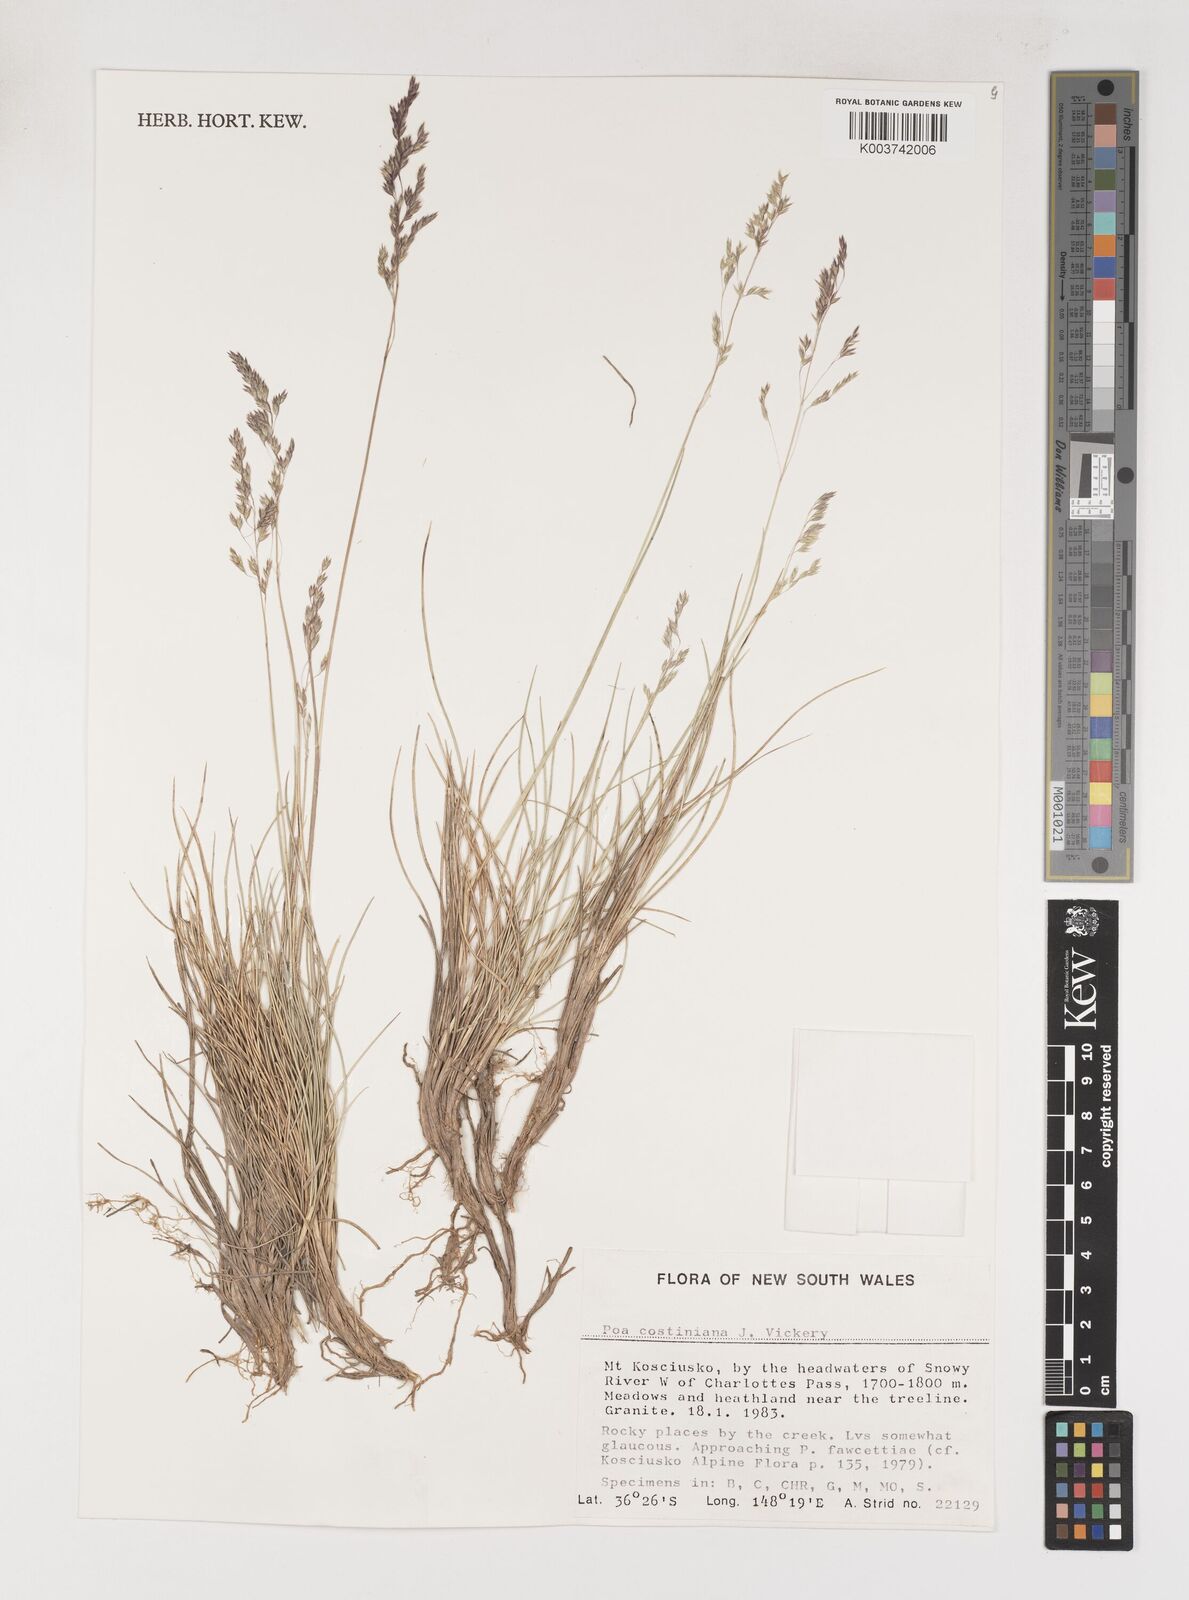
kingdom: Plantae
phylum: Tracheophyta
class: Liliopsida
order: Poales
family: Poaceae
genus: Poa
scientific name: Poa costiniana
